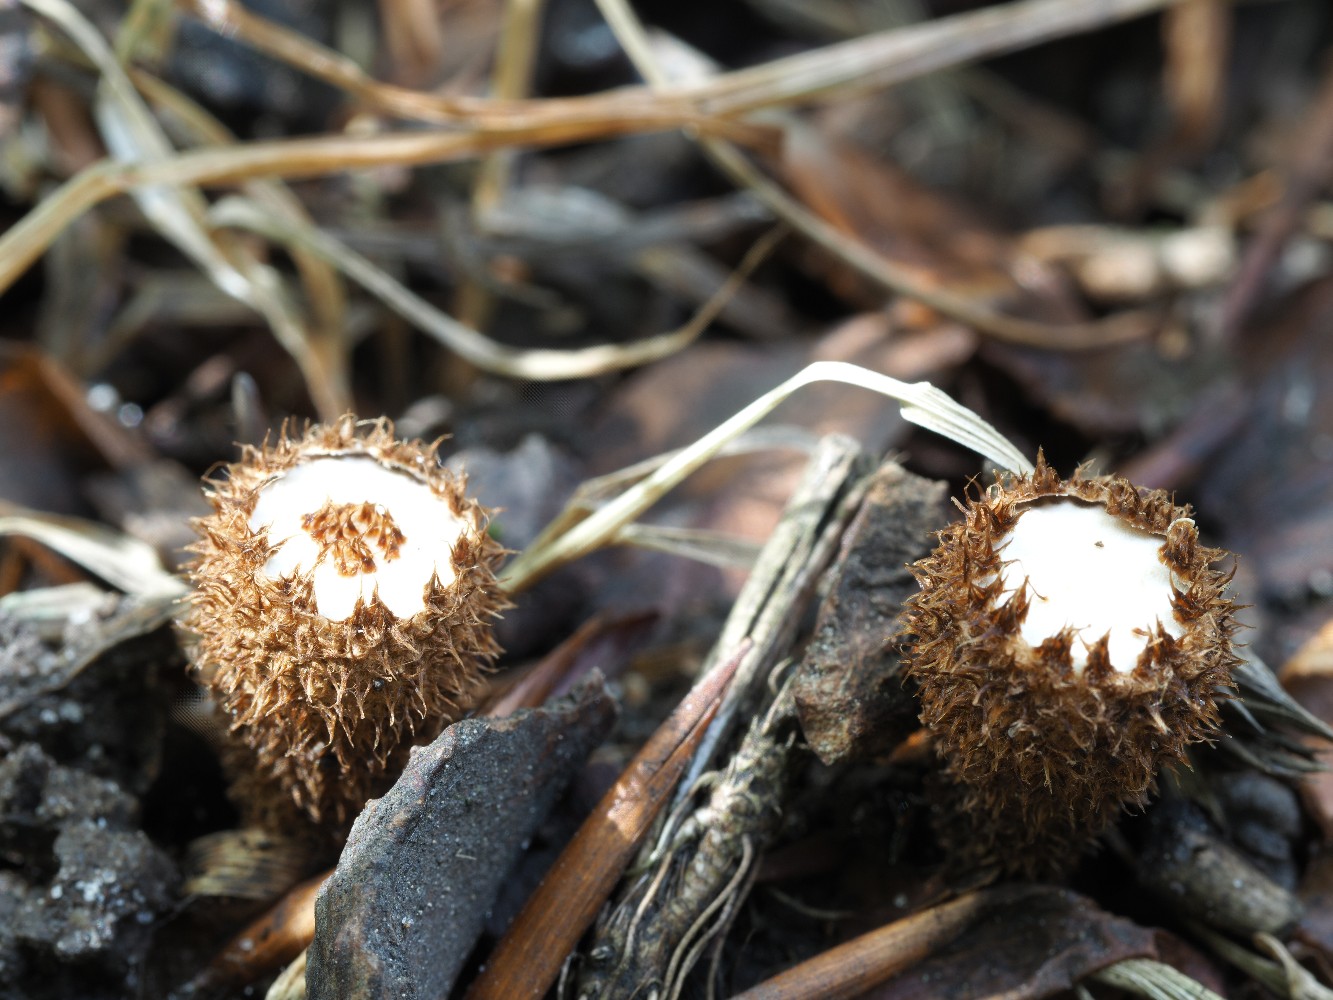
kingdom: Fungi
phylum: Basidiomycota
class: Agaricomycetes
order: Agaricales
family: Agaricaceae
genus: Cyathus
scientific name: Cyathus striatus
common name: stribet redesvamp
